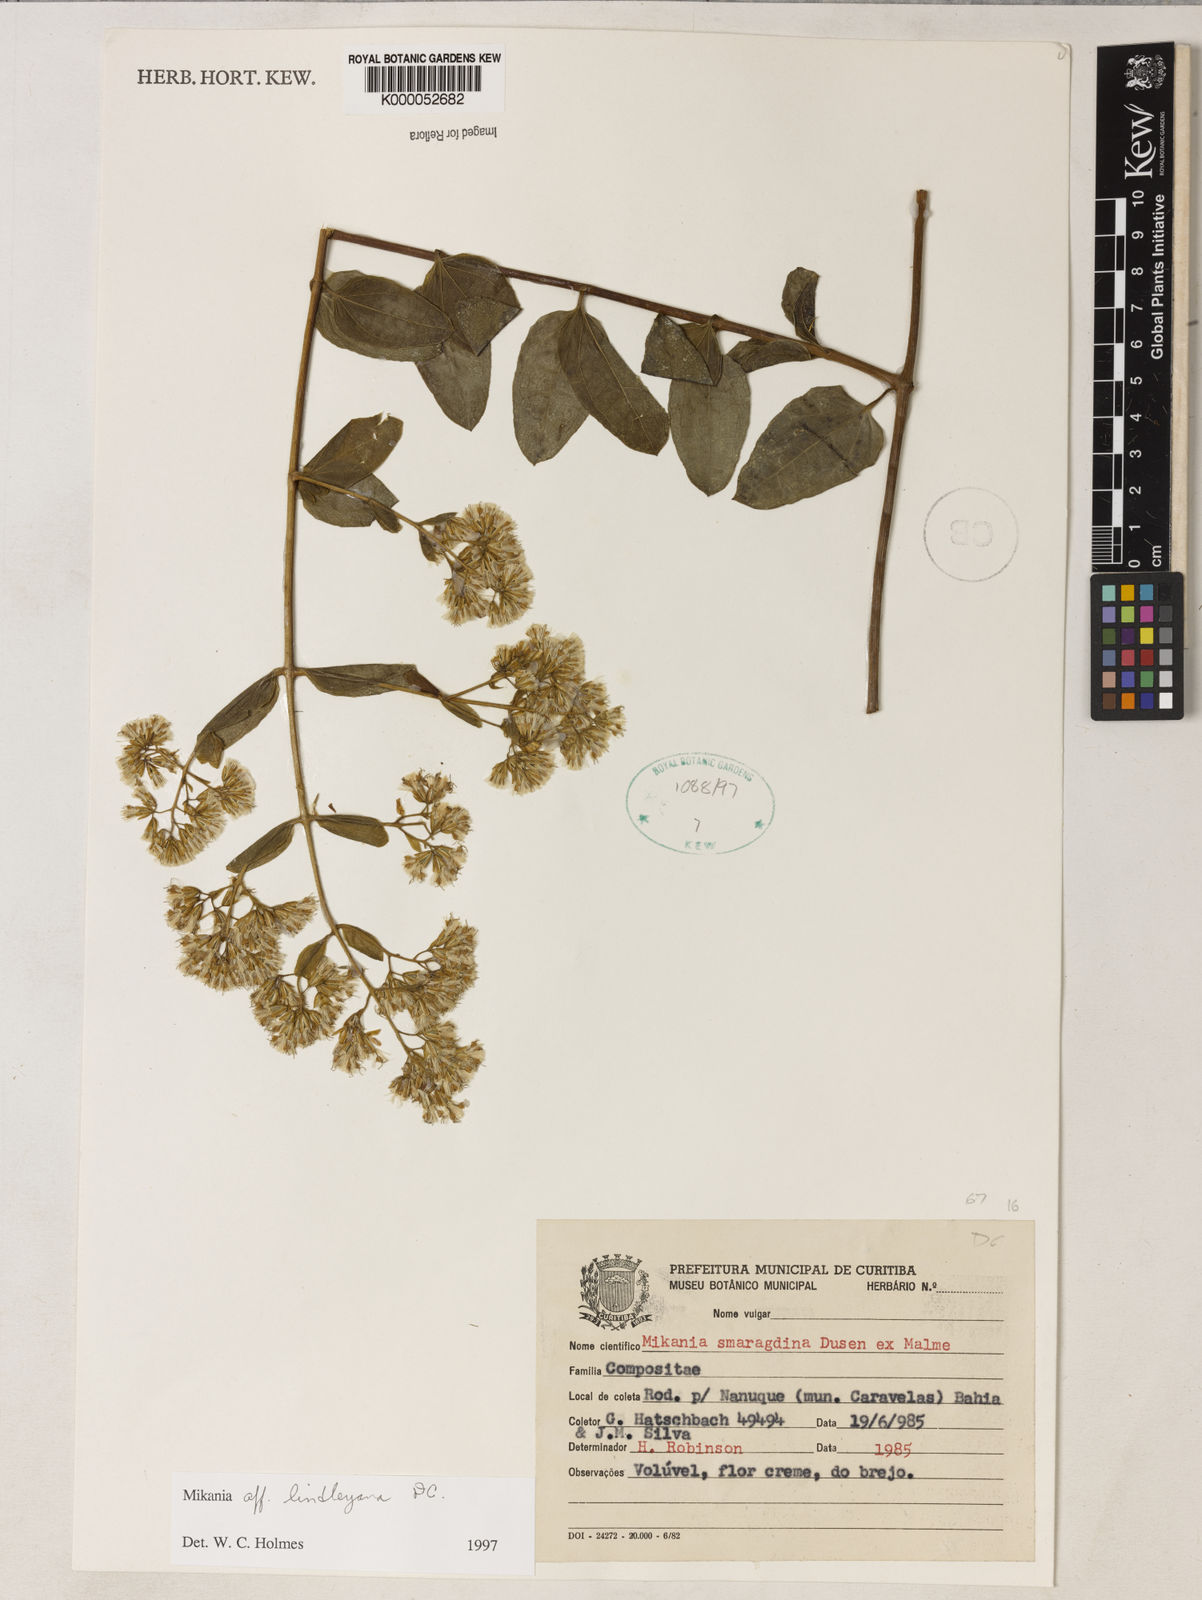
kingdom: Plantae
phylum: Tracheophyta
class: Magnoliopsida
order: Asterales
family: Asteraceae
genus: Mikania
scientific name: Mikania lindleyana
